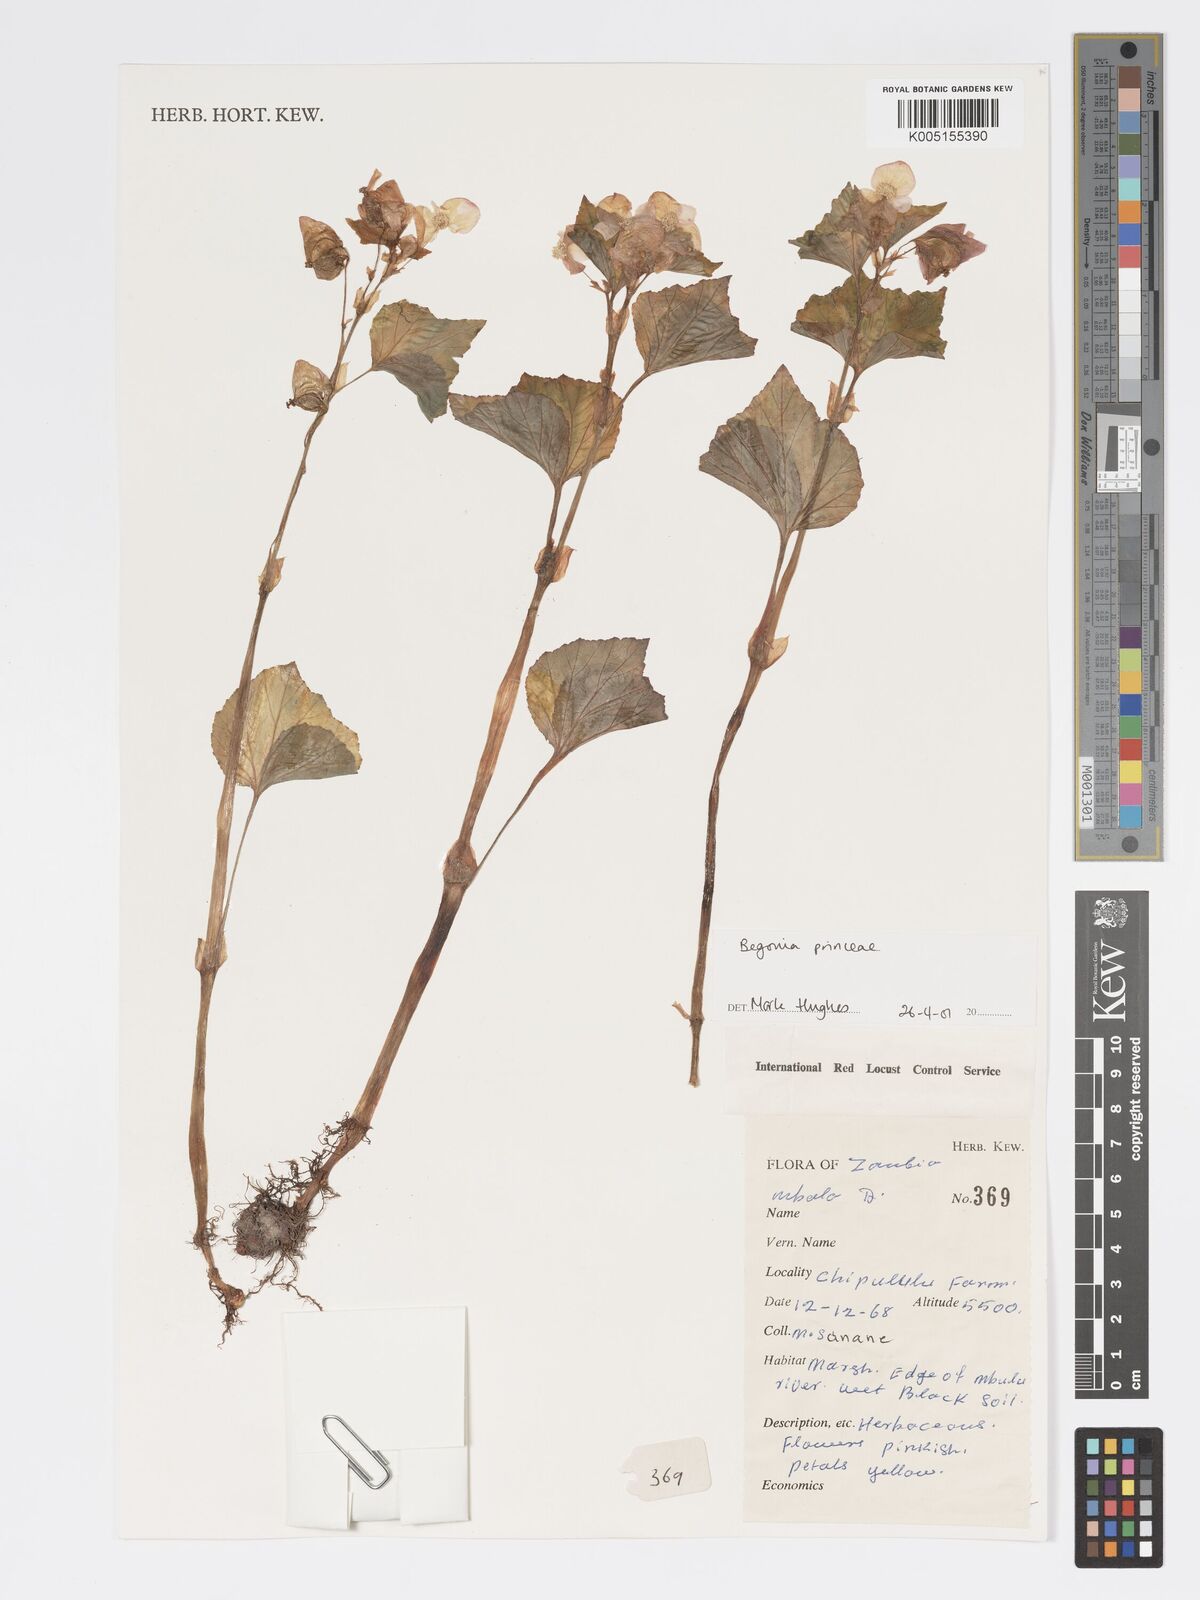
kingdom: Plantae
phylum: Tracheophyta
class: Magnoliopsida
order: Cucurbitales
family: Begoniaceae
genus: Begonia
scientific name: Begonia
